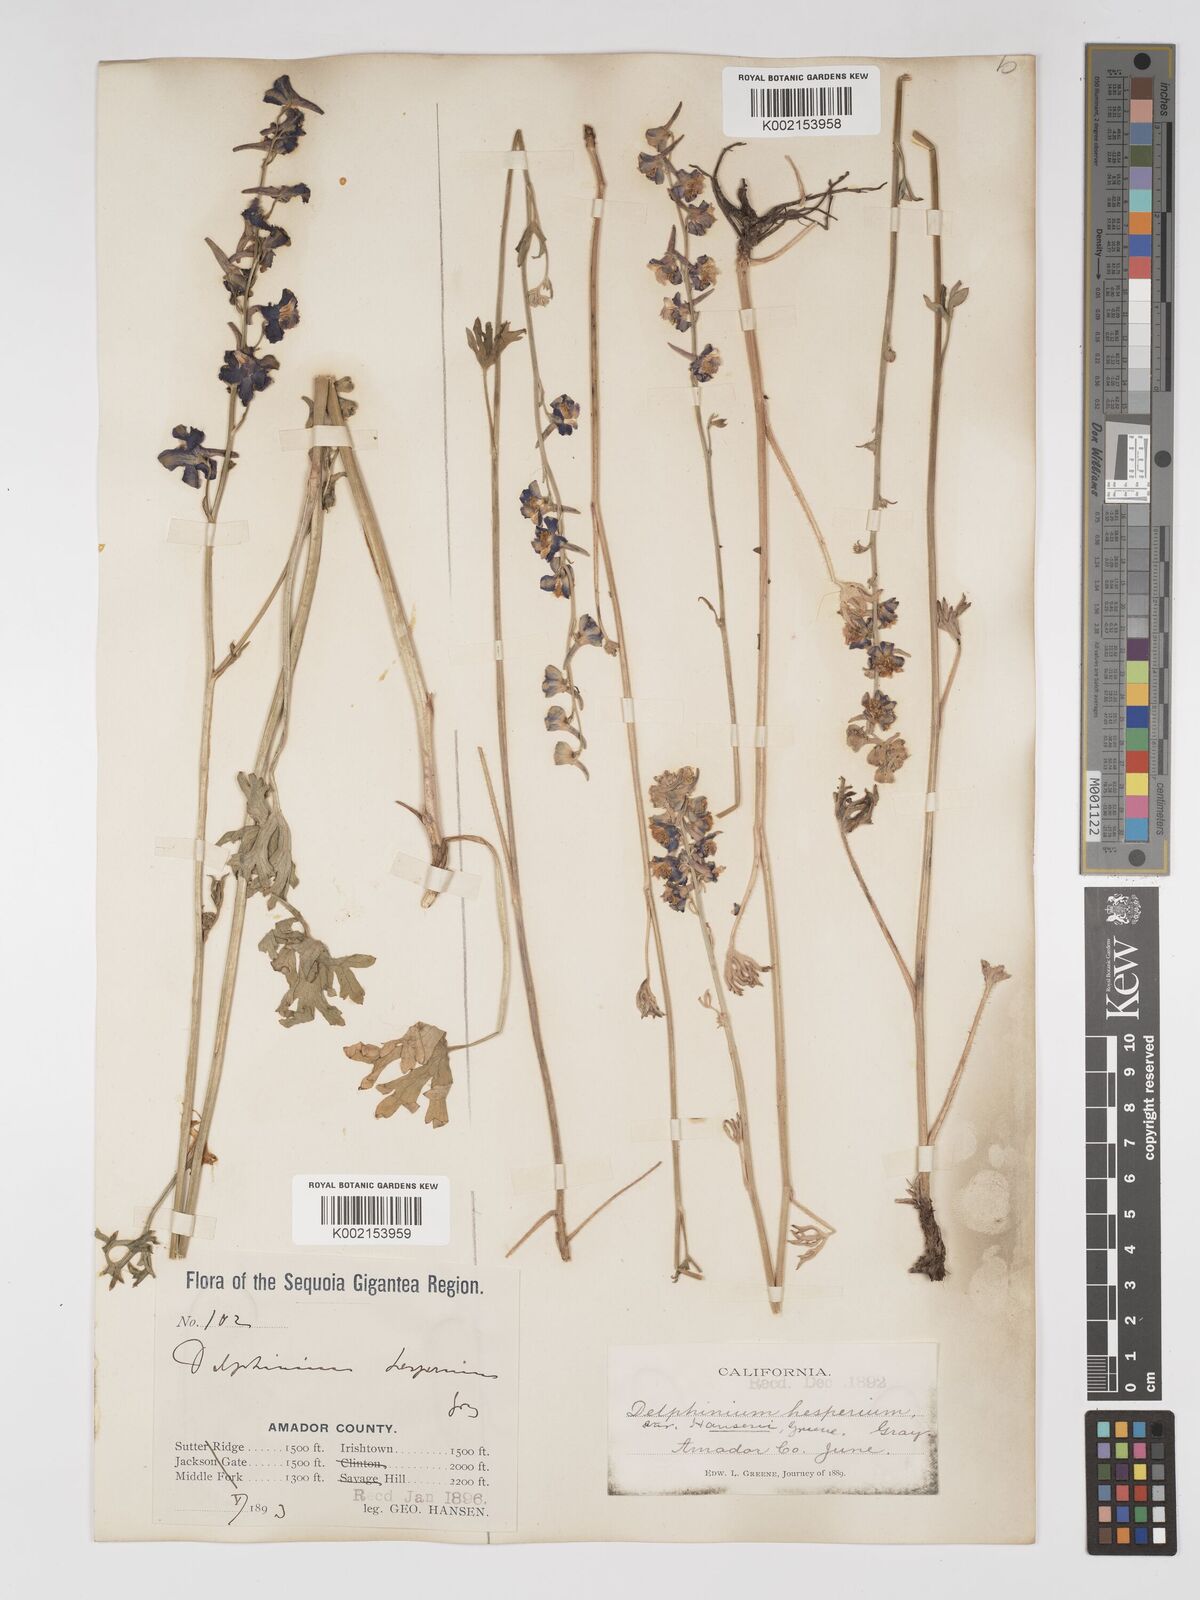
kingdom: Plantae
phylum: Tracheophyta
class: Magnoliopsida
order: Ranunculales
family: Ranunculaceae
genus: Delphinium
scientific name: Delphinium hansenii
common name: Hansen's larkspur
